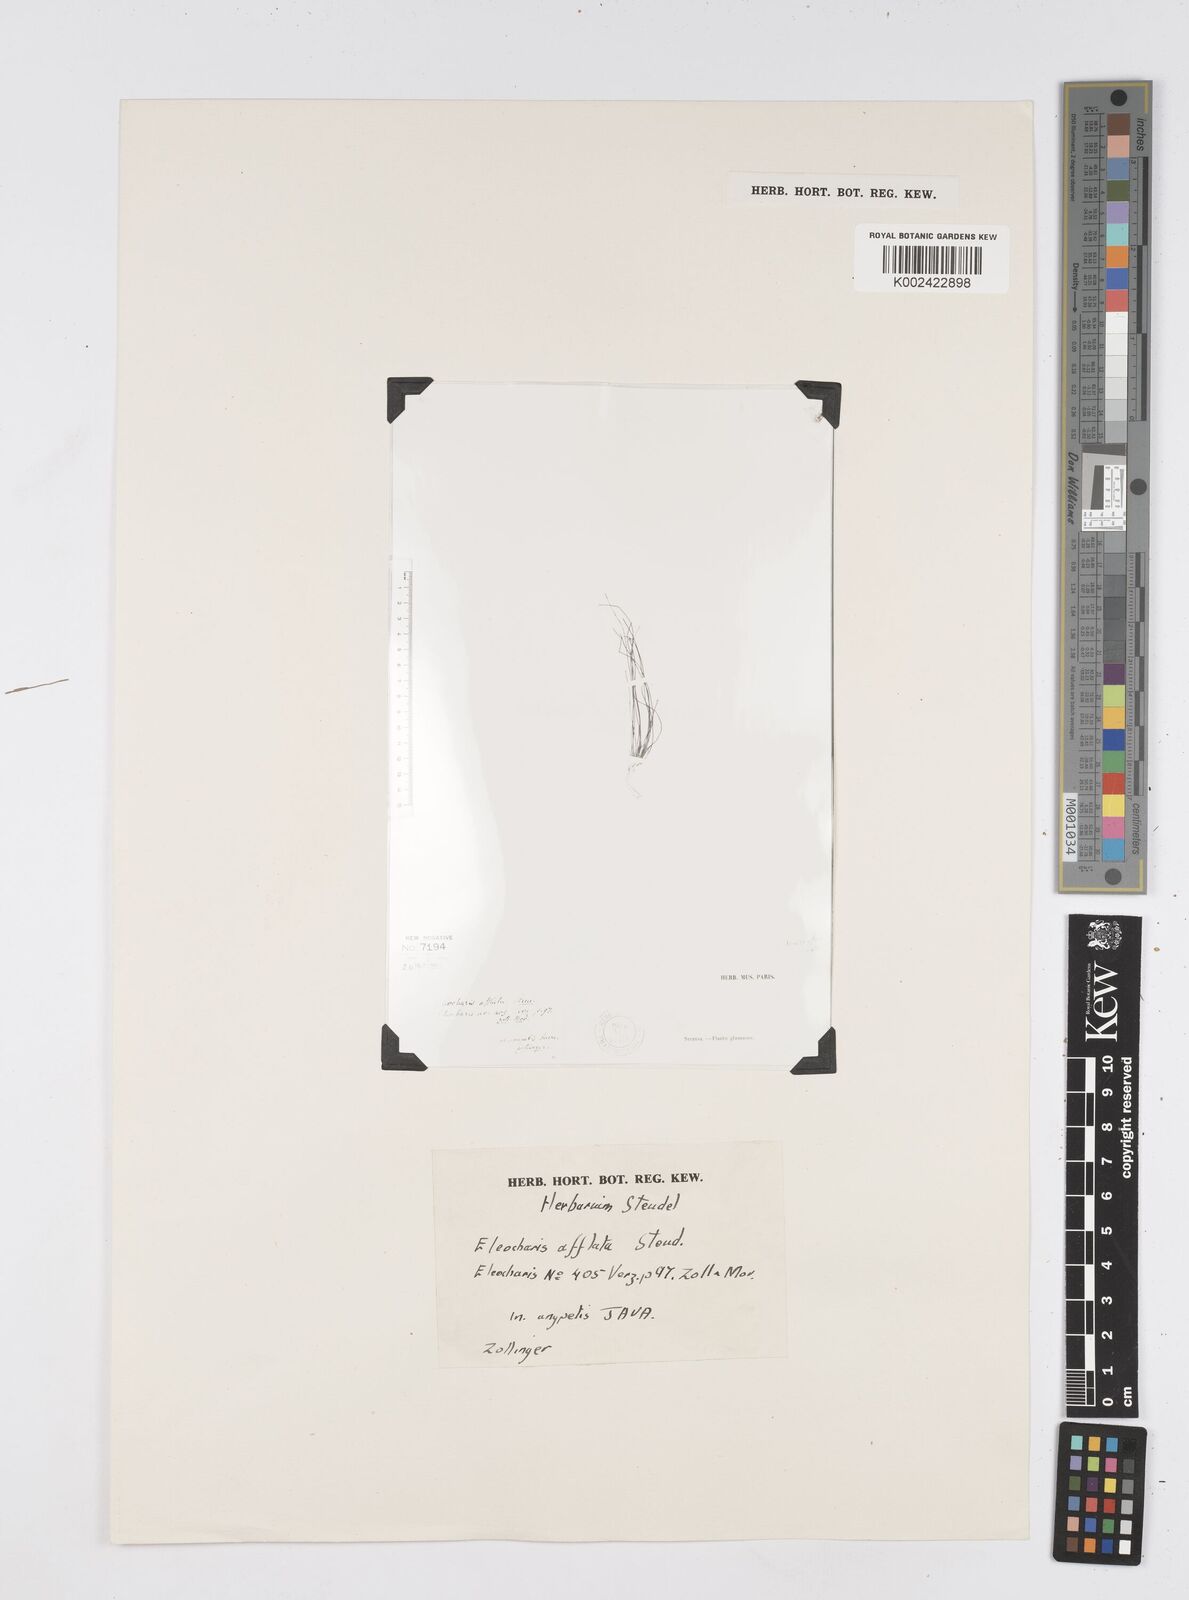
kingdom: Plantae
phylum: Tracheophyta
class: Liliopsida
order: Poales
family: Cyperaceae
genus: Eleocharis
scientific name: Eleocharis congesta
